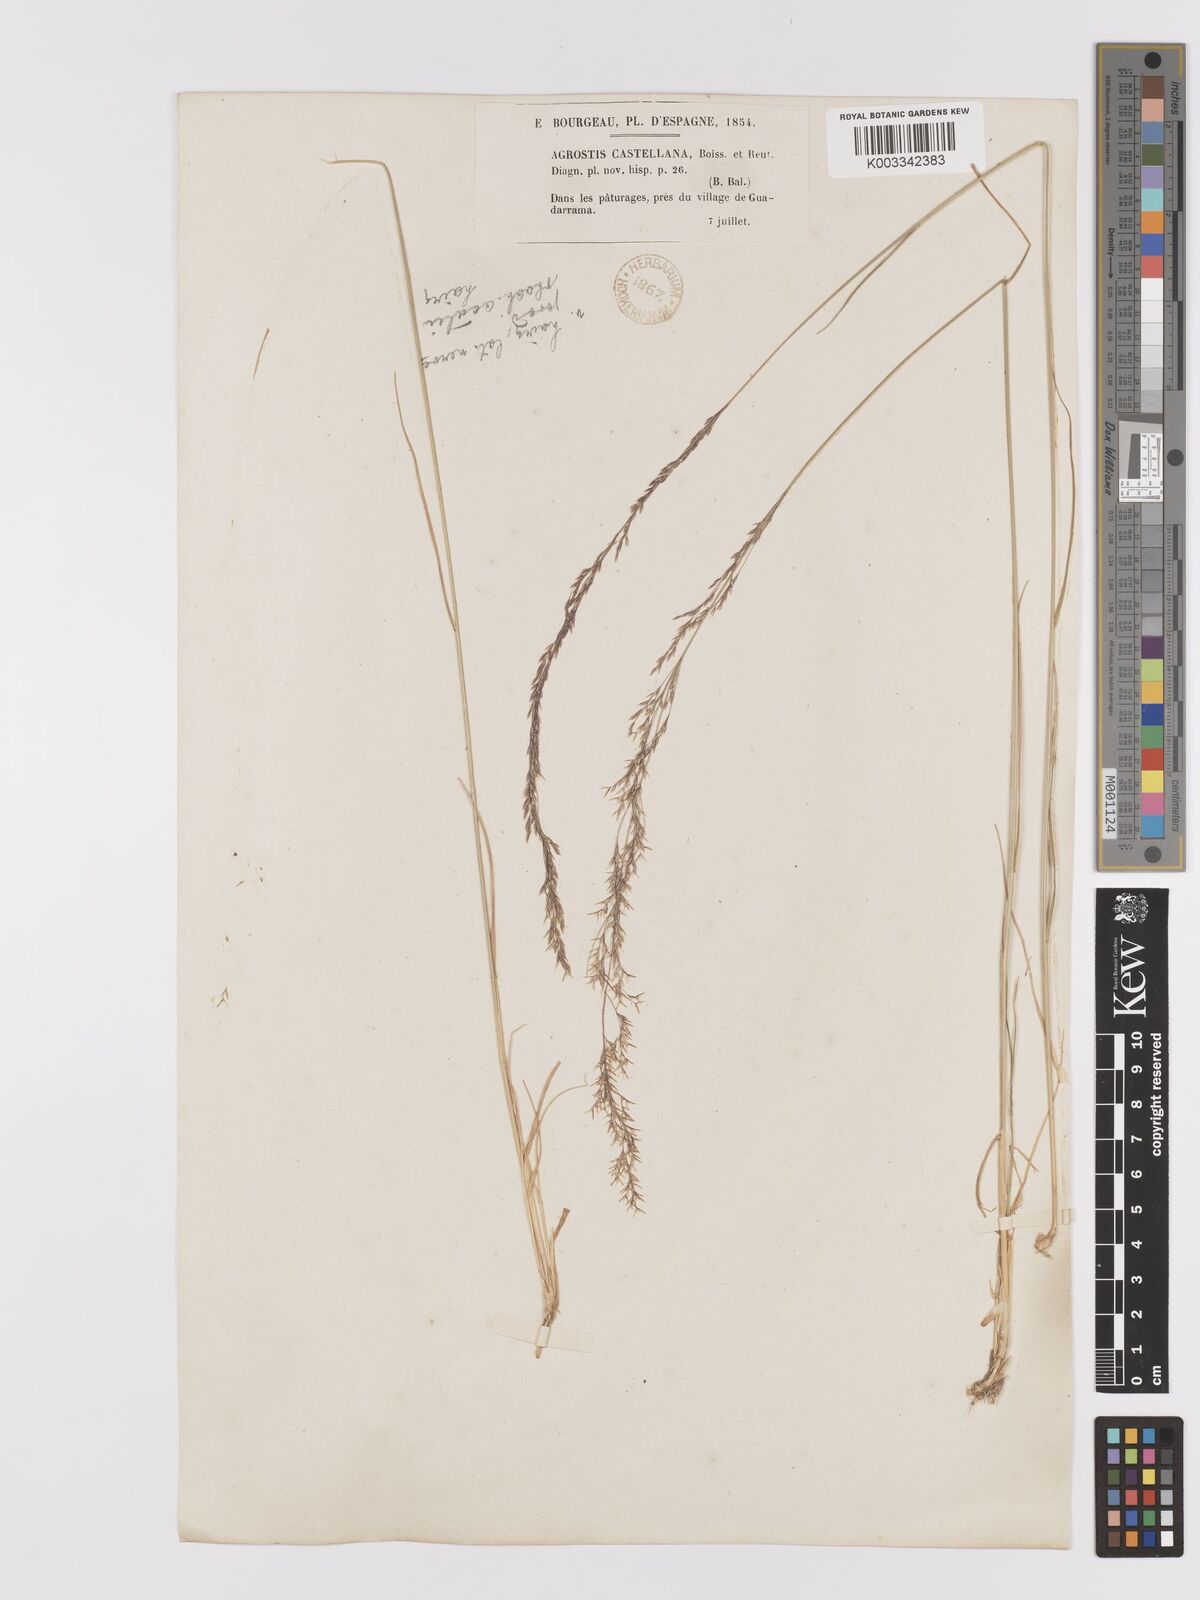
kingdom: Plantae
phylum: Tracheophyta
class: Liliopsida
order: Poales
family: Poaceae
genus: Agrostis
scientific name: Agrostis castriferrei
